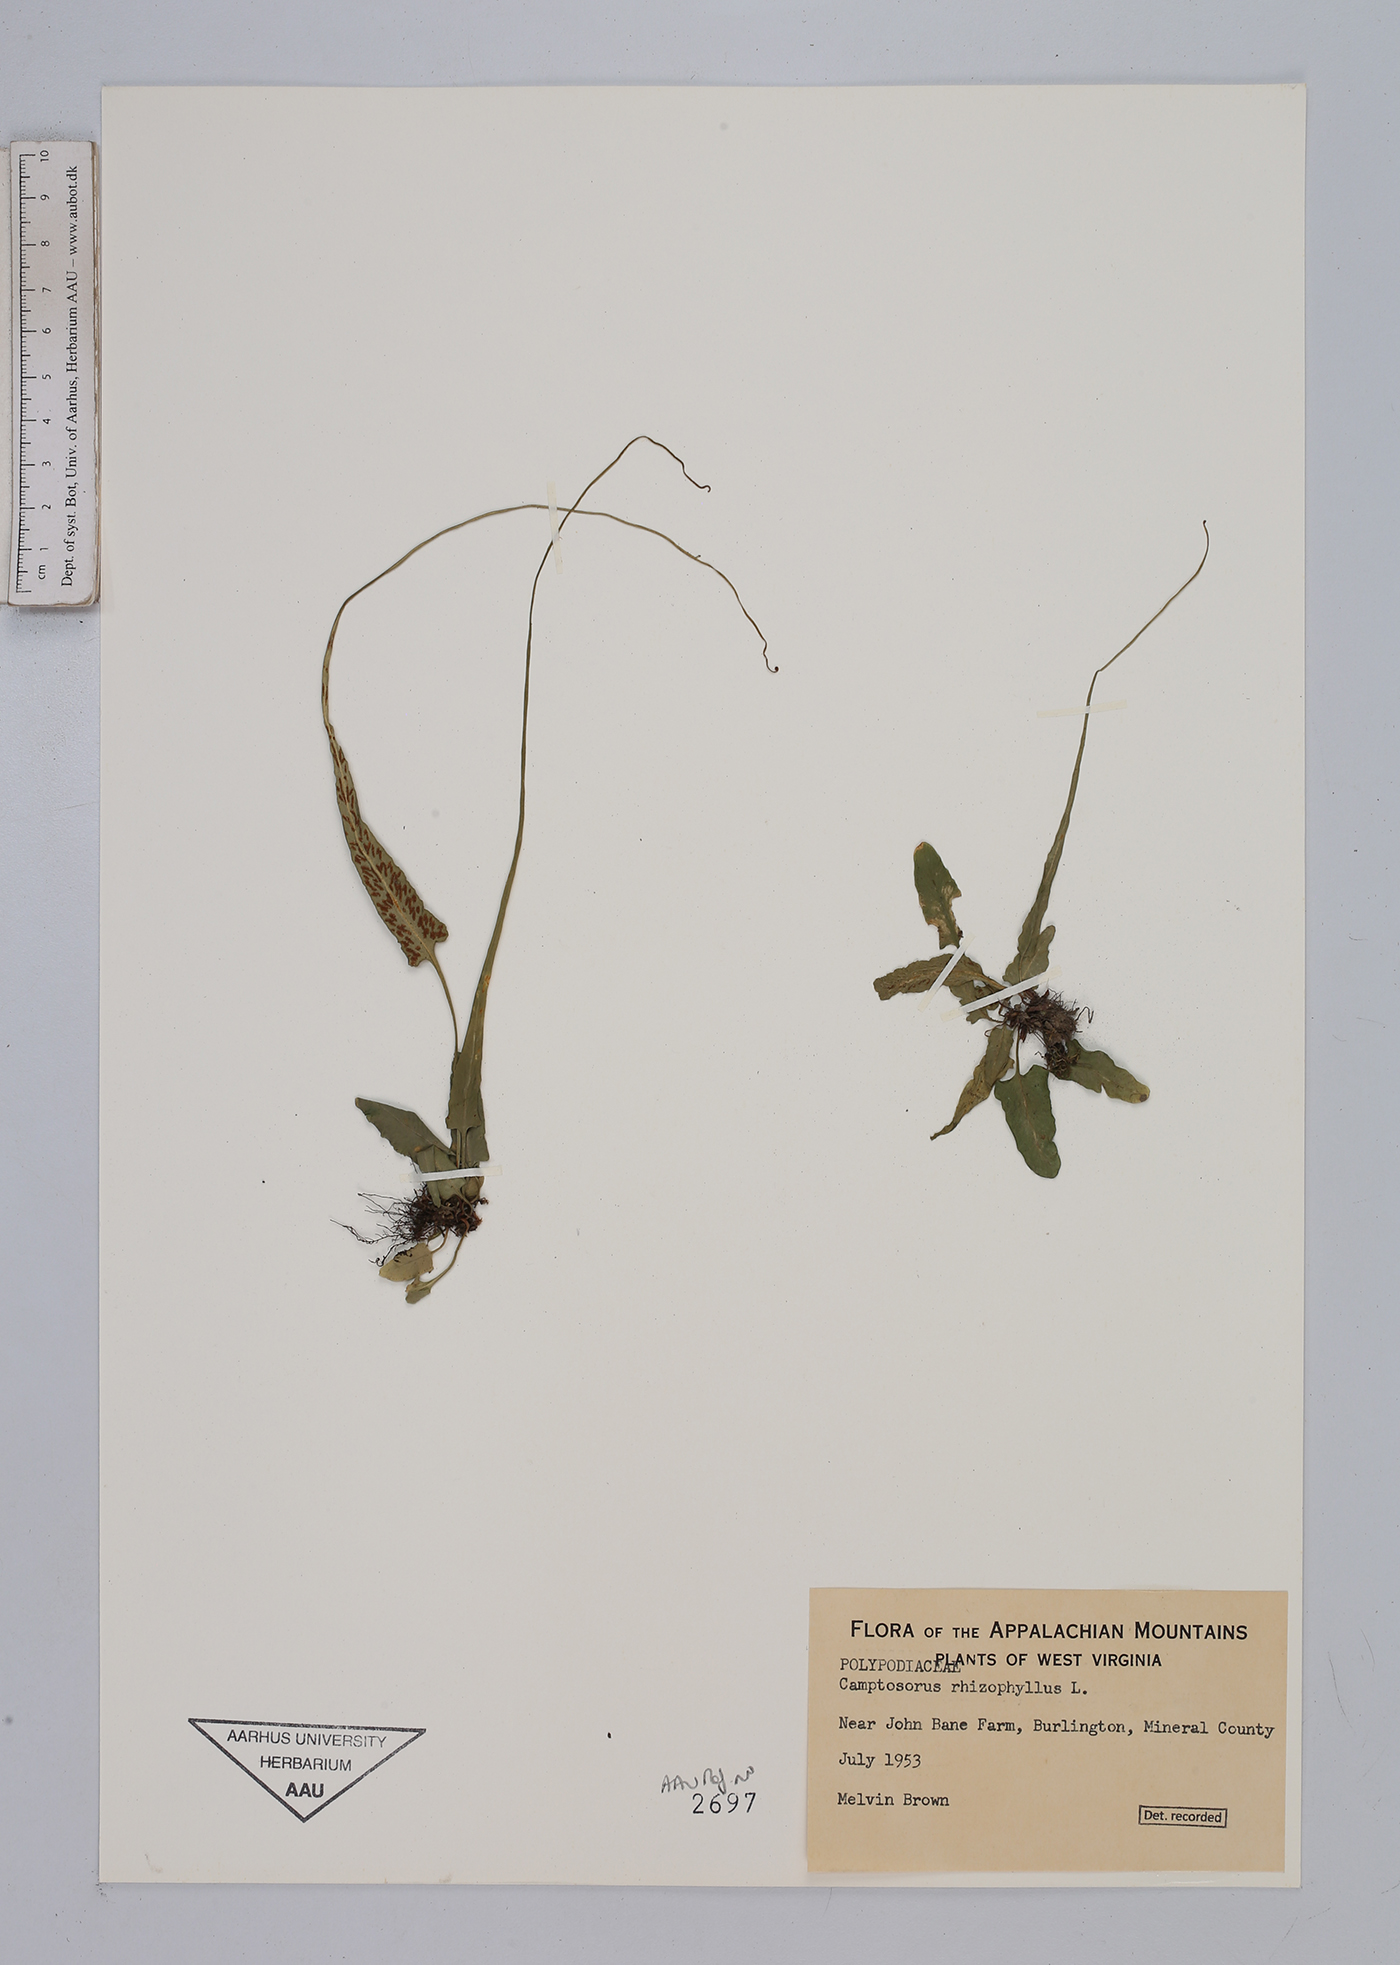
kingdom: Plantae
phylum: Tracheophyta
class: Polypodiopsida
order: Polypodiales
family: Aspleniaceae
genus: Asplenium
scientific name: Asplenium rhizophyllum
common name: Walking fern
